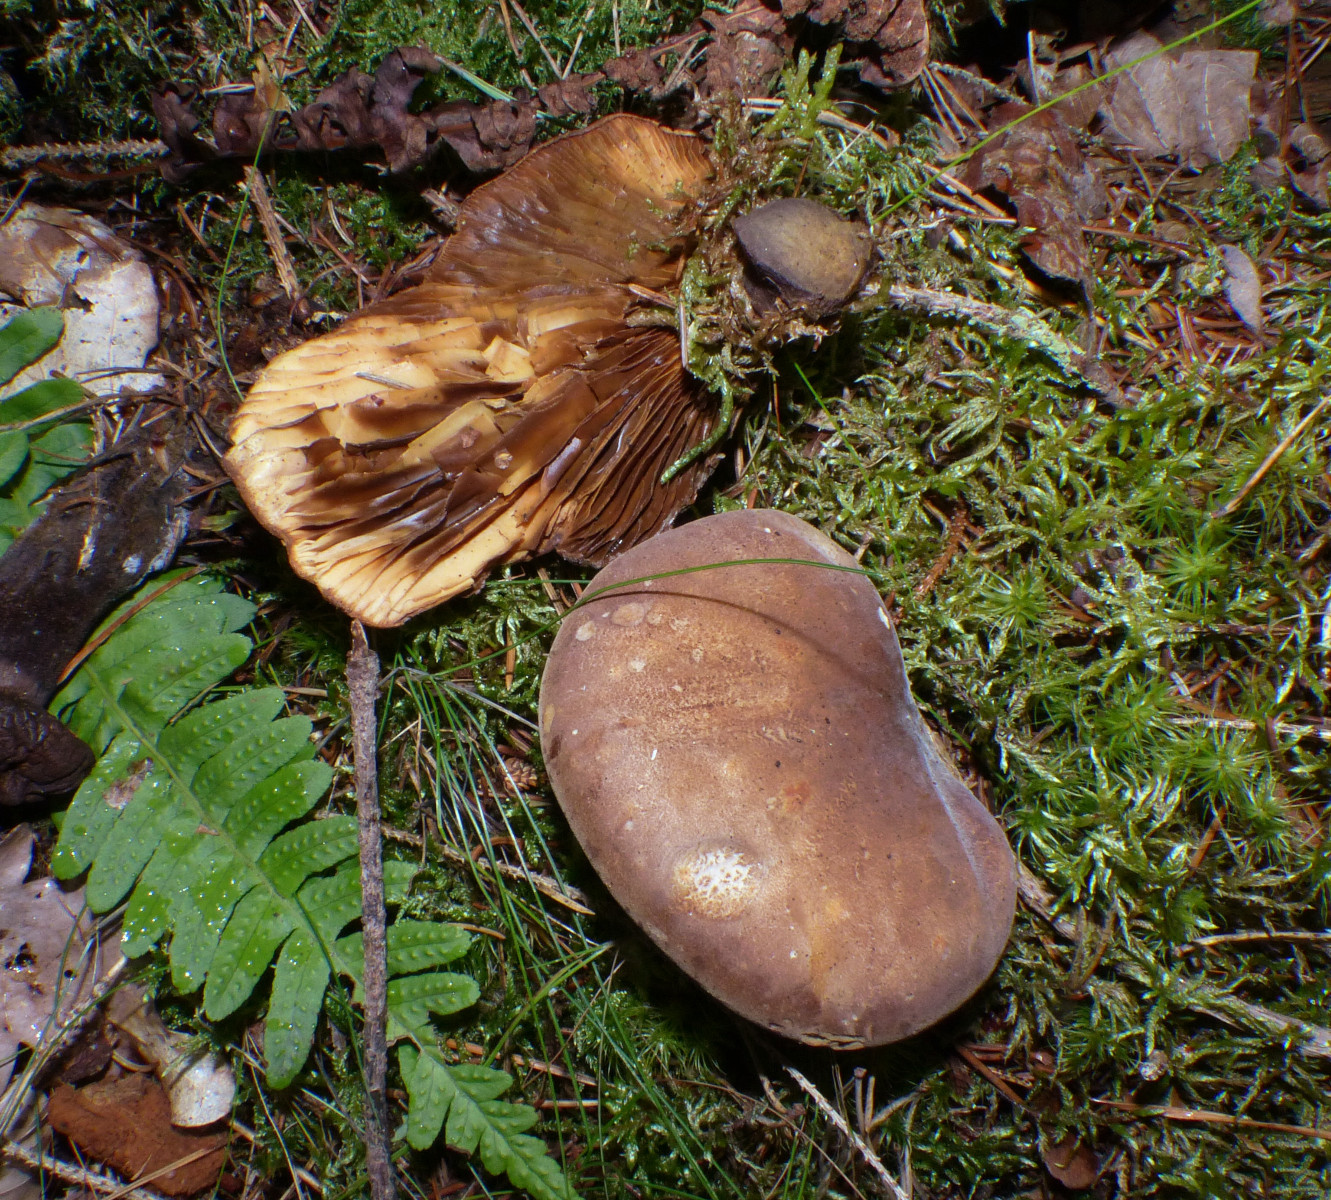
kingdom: Fungi
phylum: Basidiomycota
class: Agaricomycetes
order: Boletales
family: Tapinellaceae
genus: Tapinella
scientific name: Tapinella atrotomentosa
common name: sortfiltet viftesvamp
